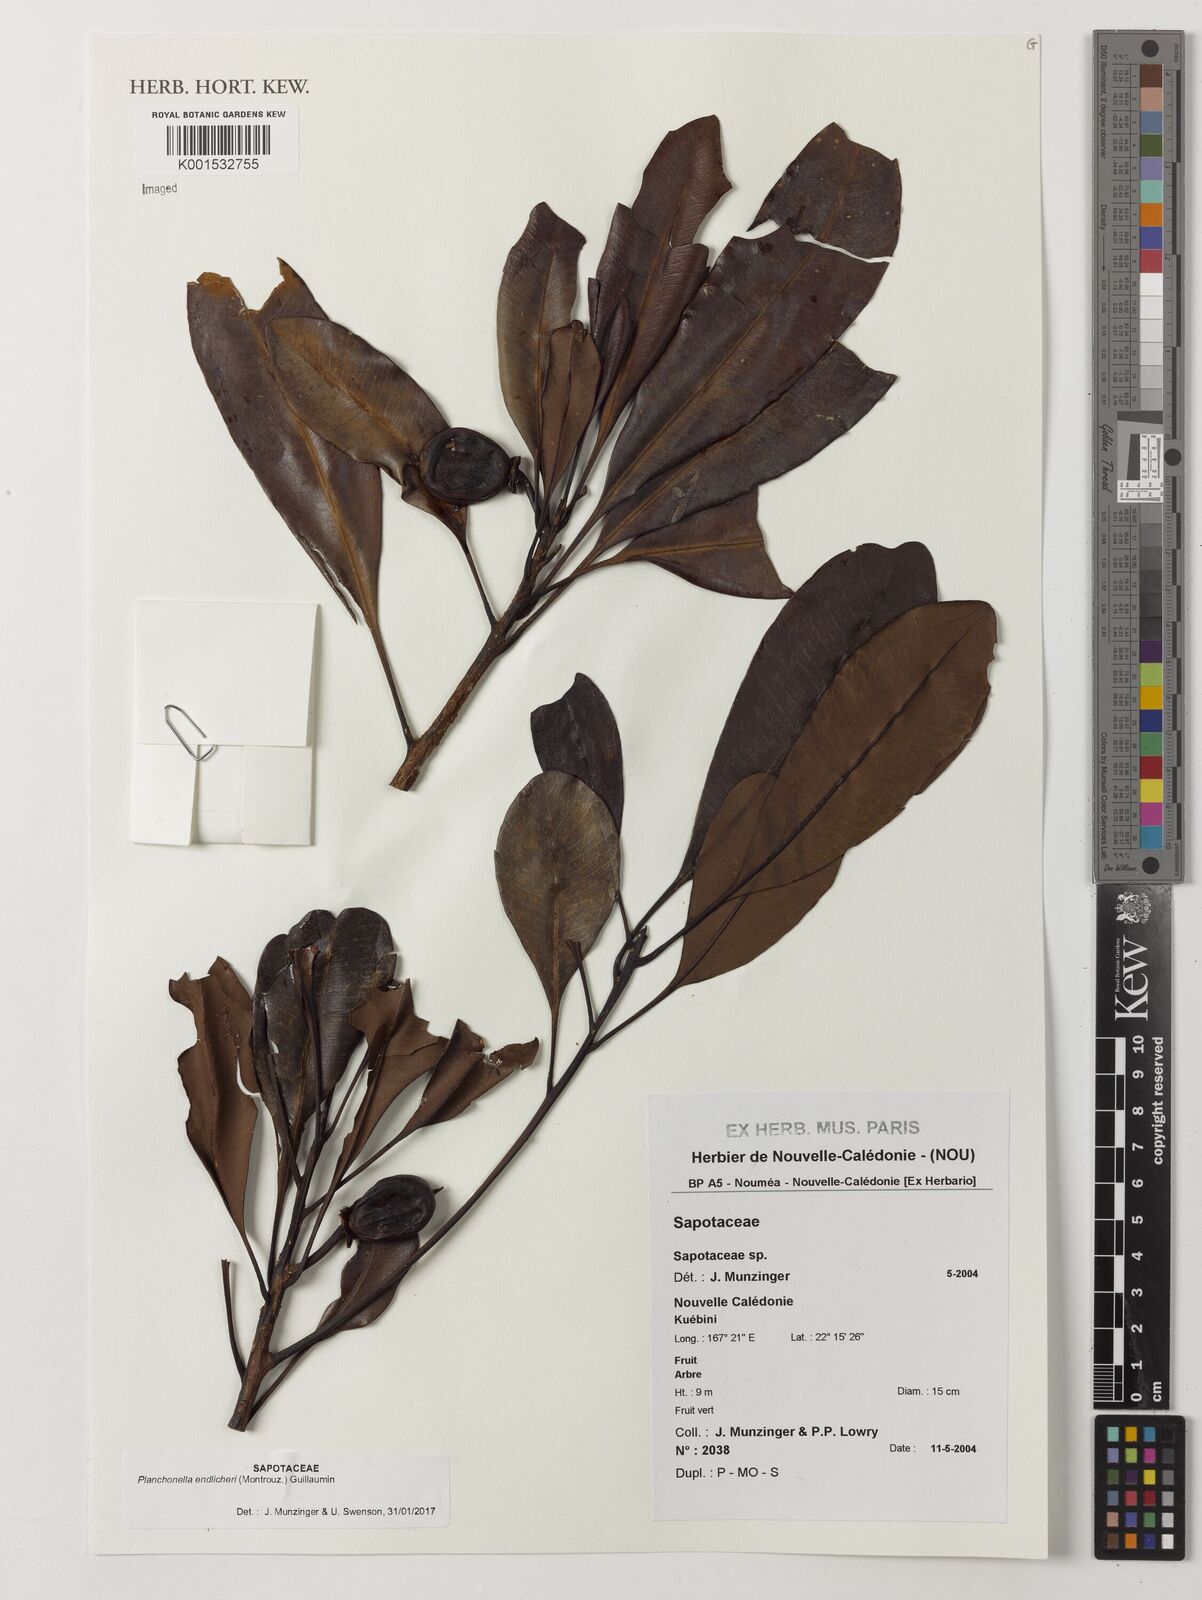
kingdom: Plantae
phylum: Tracheophyta
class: Magnoliopsida
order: Ericales
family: Sapotaceae
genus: Planchonella
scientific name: Planchonella endlicheri
